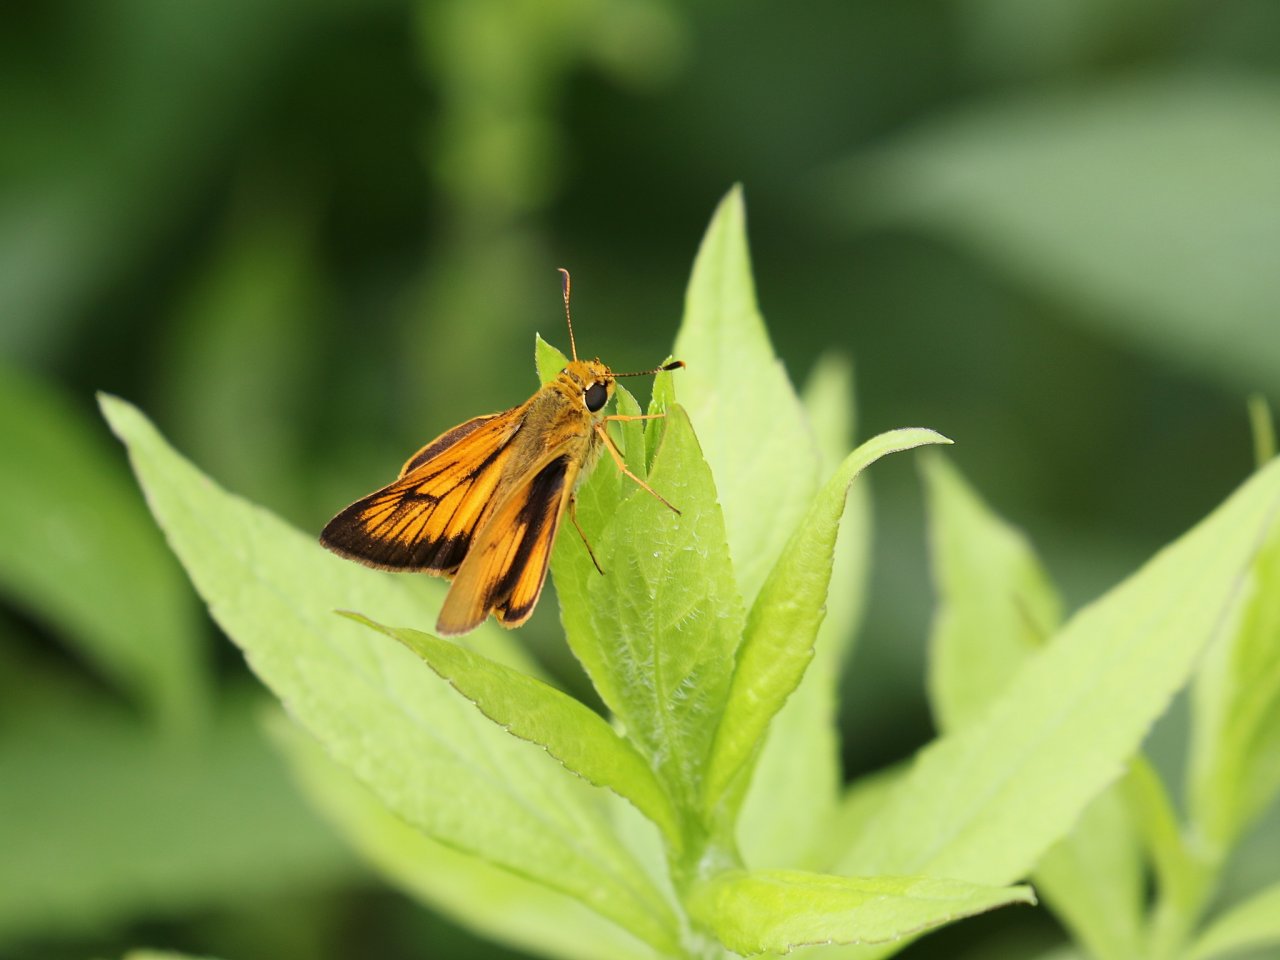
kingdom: Animalia
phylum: Arthropoda
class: Insecta
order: Lepidoptera
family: Hesperiidae
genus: Atrytone
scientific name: Atrytone delaware
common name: Delaware Skipper
